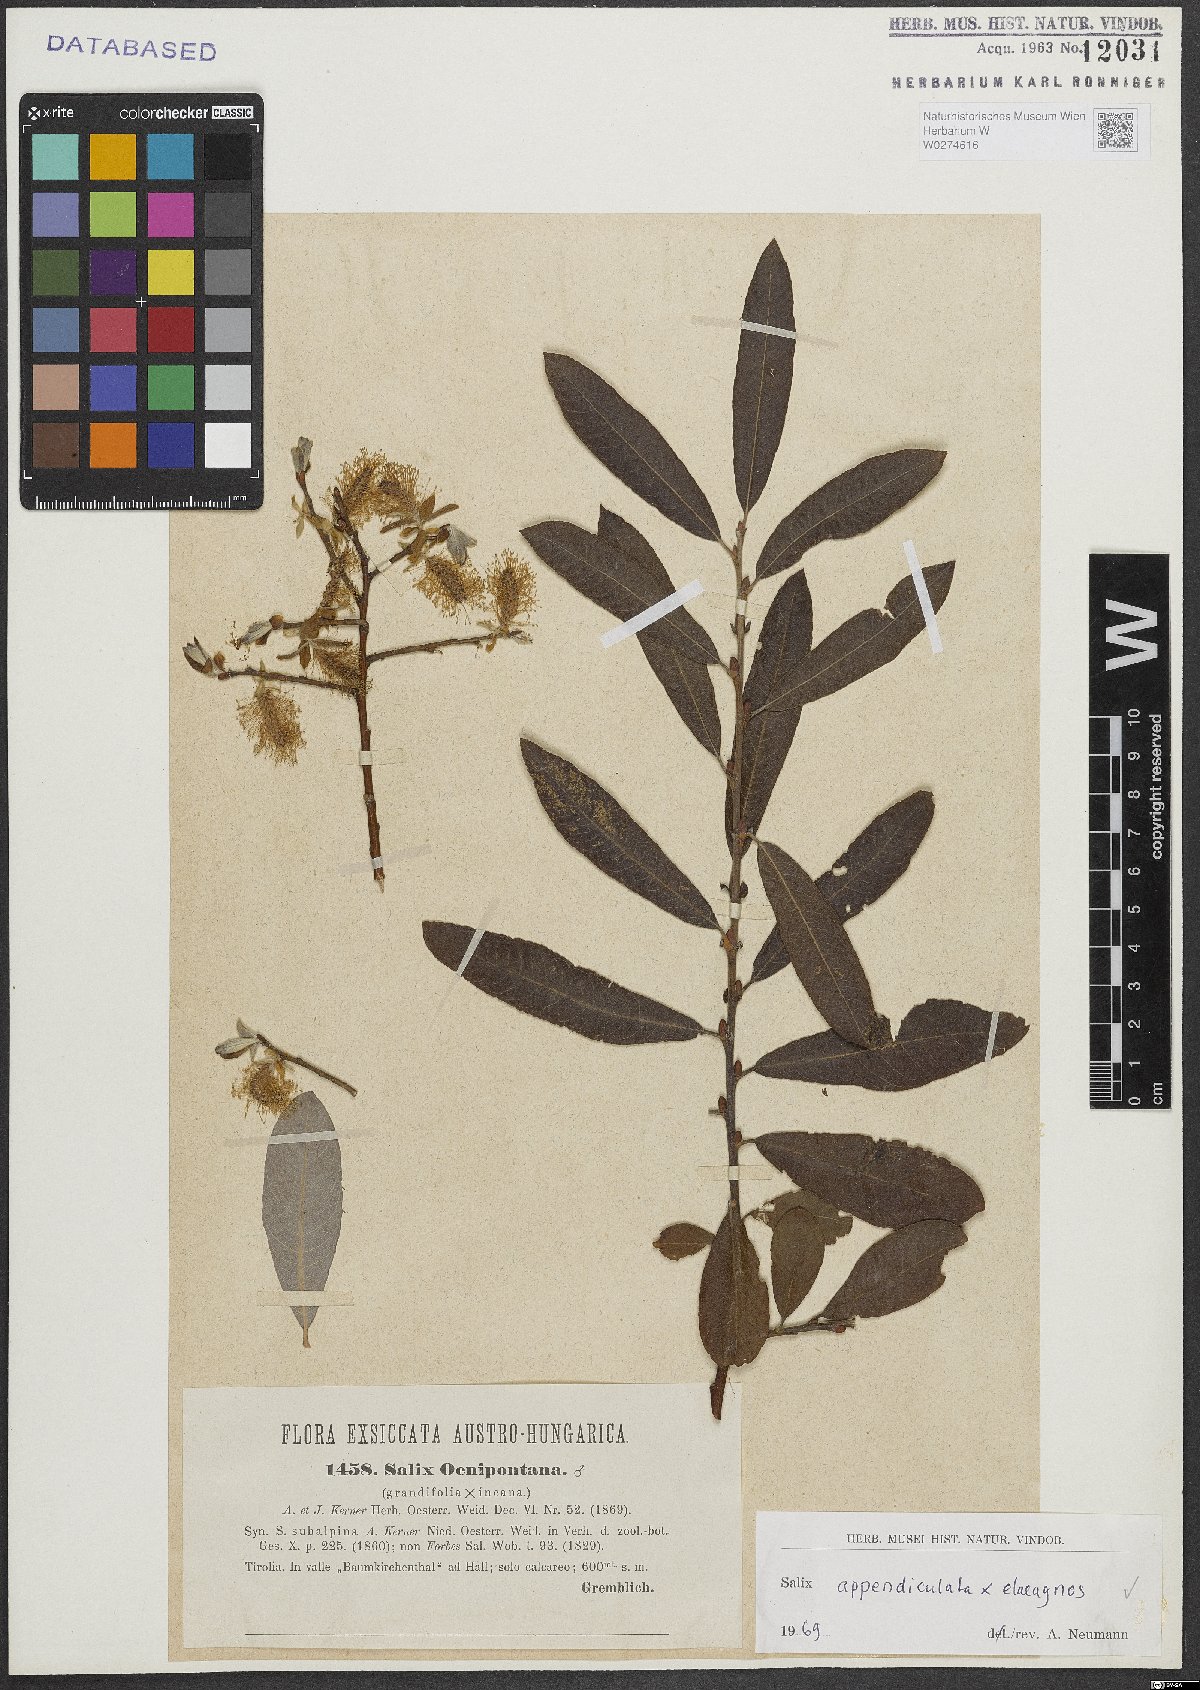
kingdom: Plantae
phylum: Tracheophyta
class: Magnoliopsida
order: Malpighiales
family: Salicaceae
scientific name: Salicaceae
